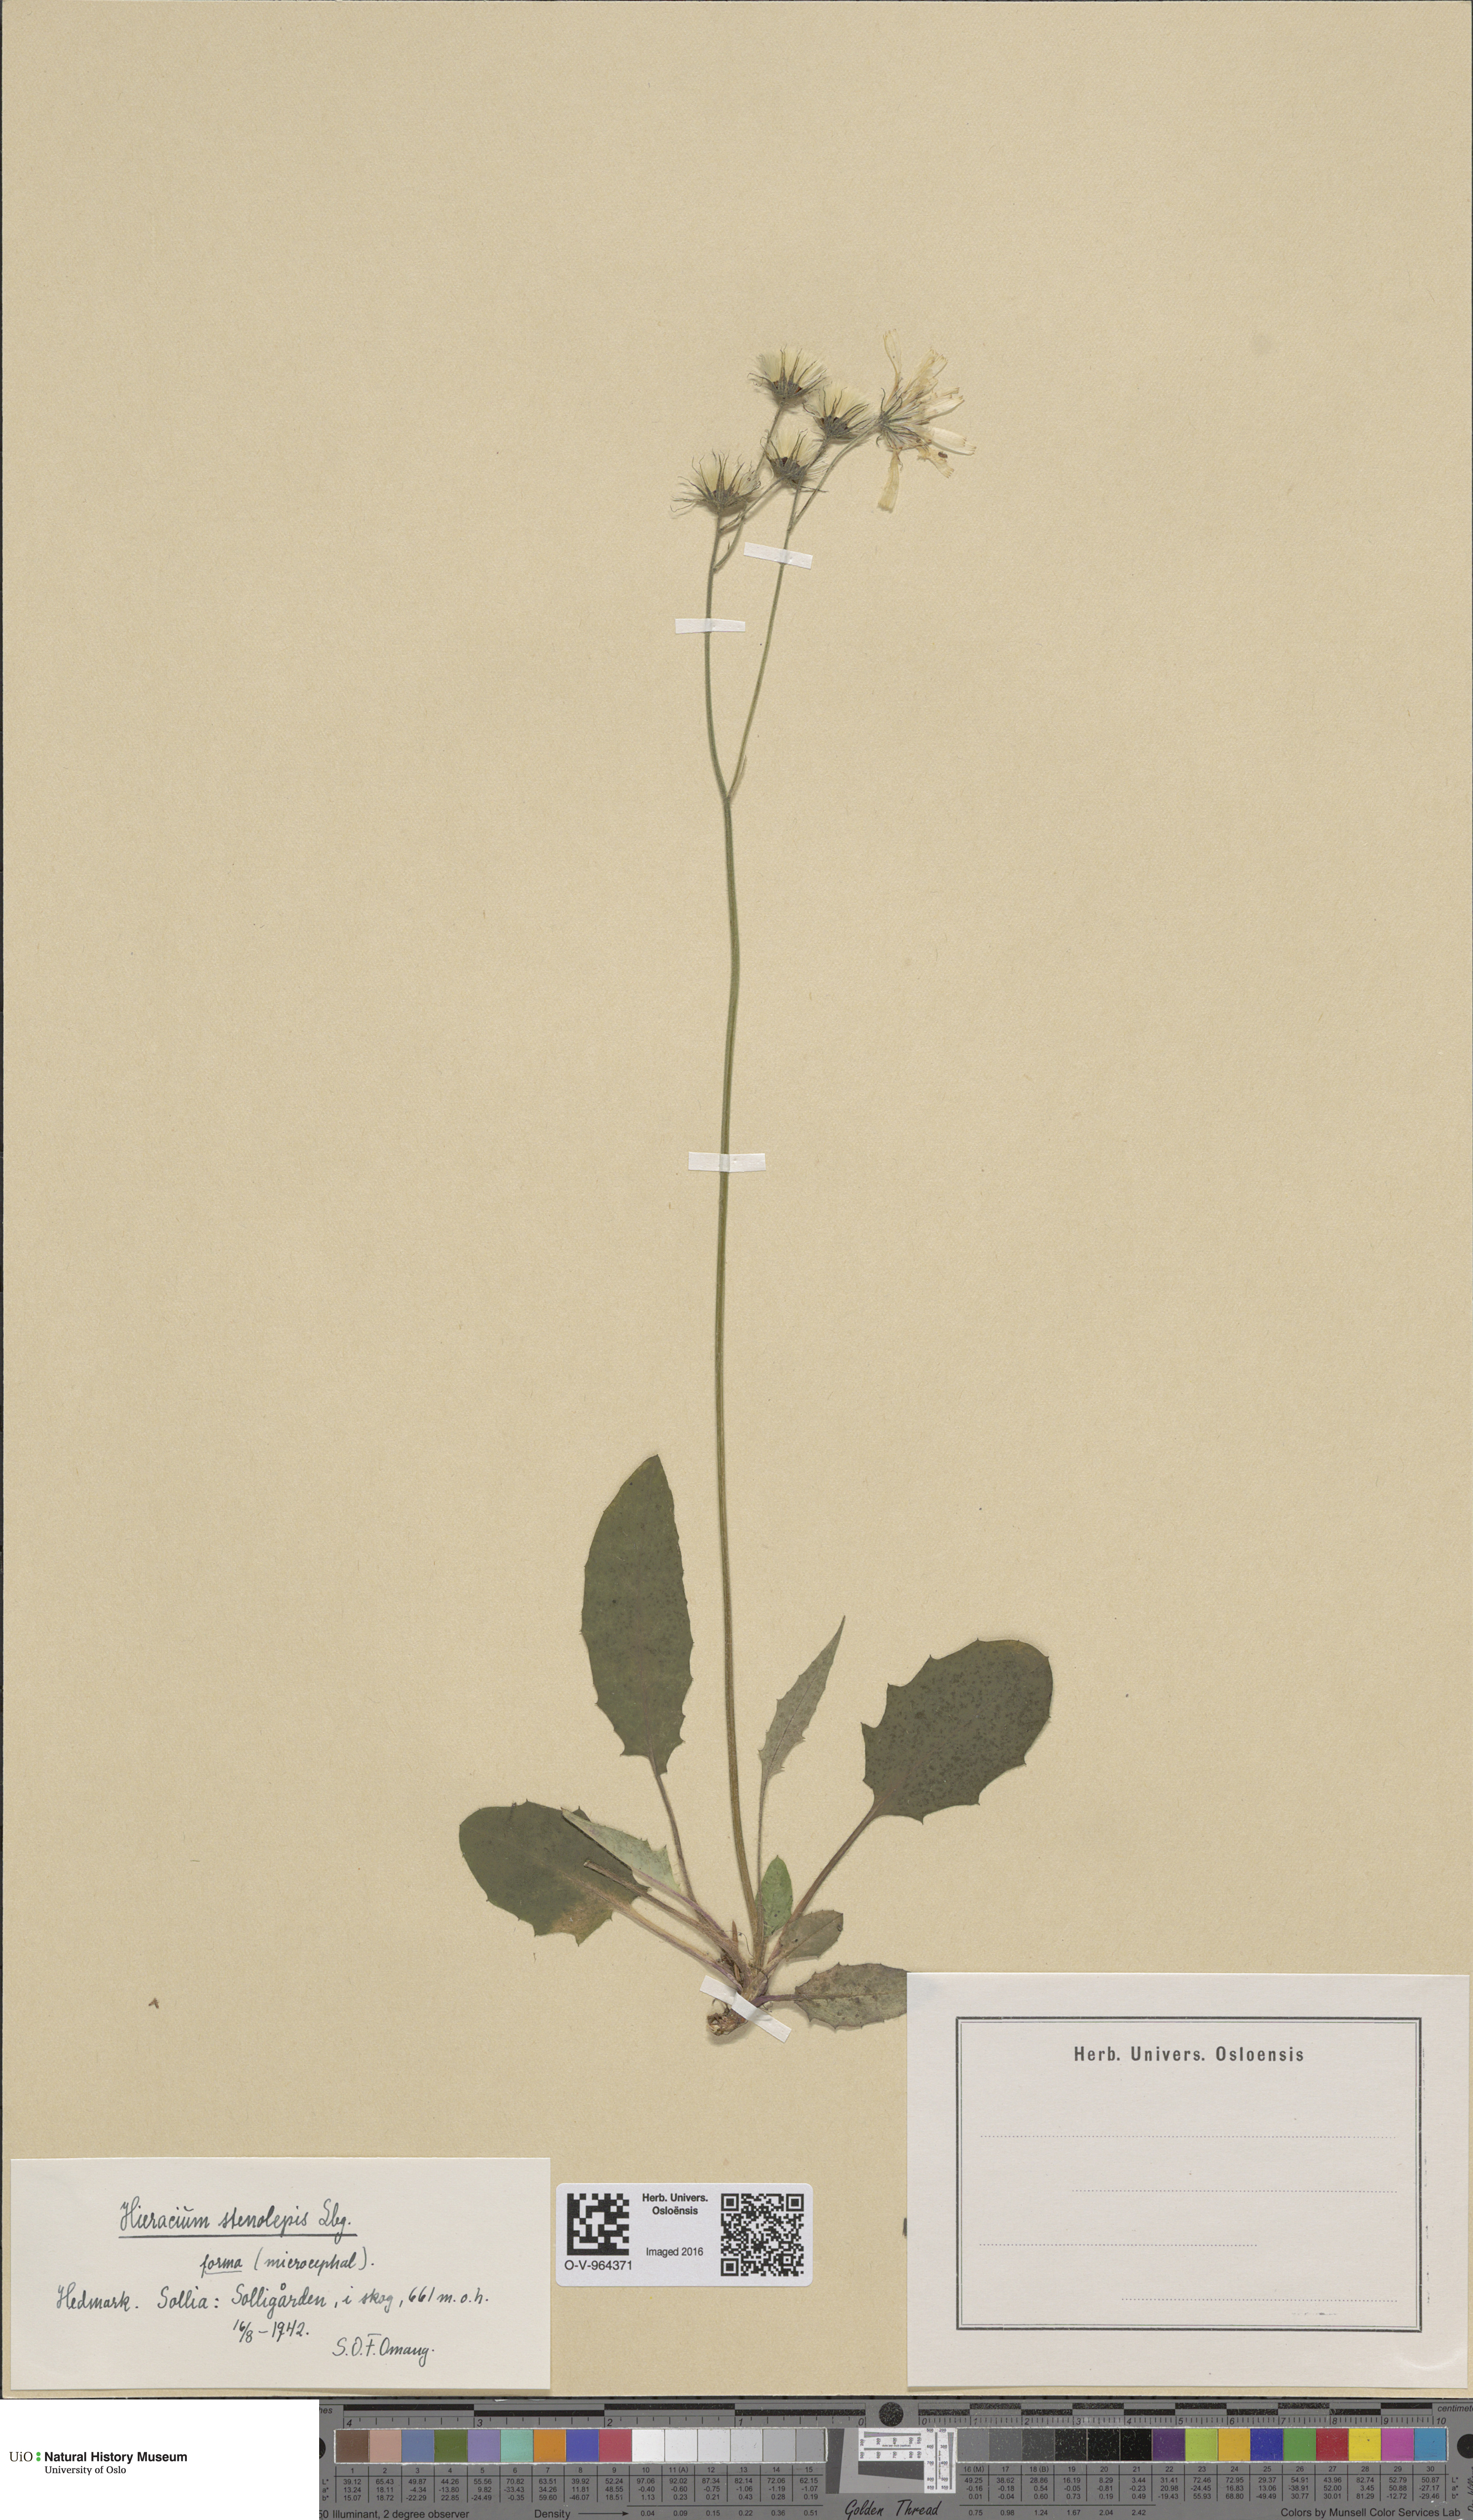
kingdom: Plantae
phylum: Tracheophyta
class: Magnoliopsida
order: Asterales
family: Asteraceae
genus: Hieracium
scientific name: Hieracium bifidum
